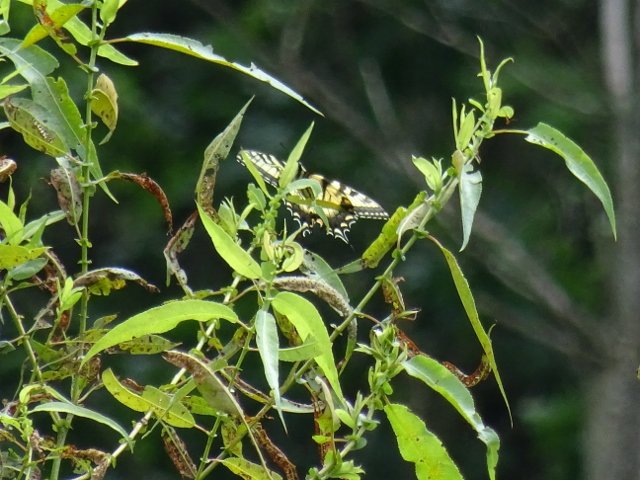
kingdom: Animalia
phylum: Arthropoda
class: Insecta
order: Lepidoptera
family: Papilionidae
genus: Pterourus
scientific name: Pterourus glaucus
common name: Eastern Tiger Swallowtail
